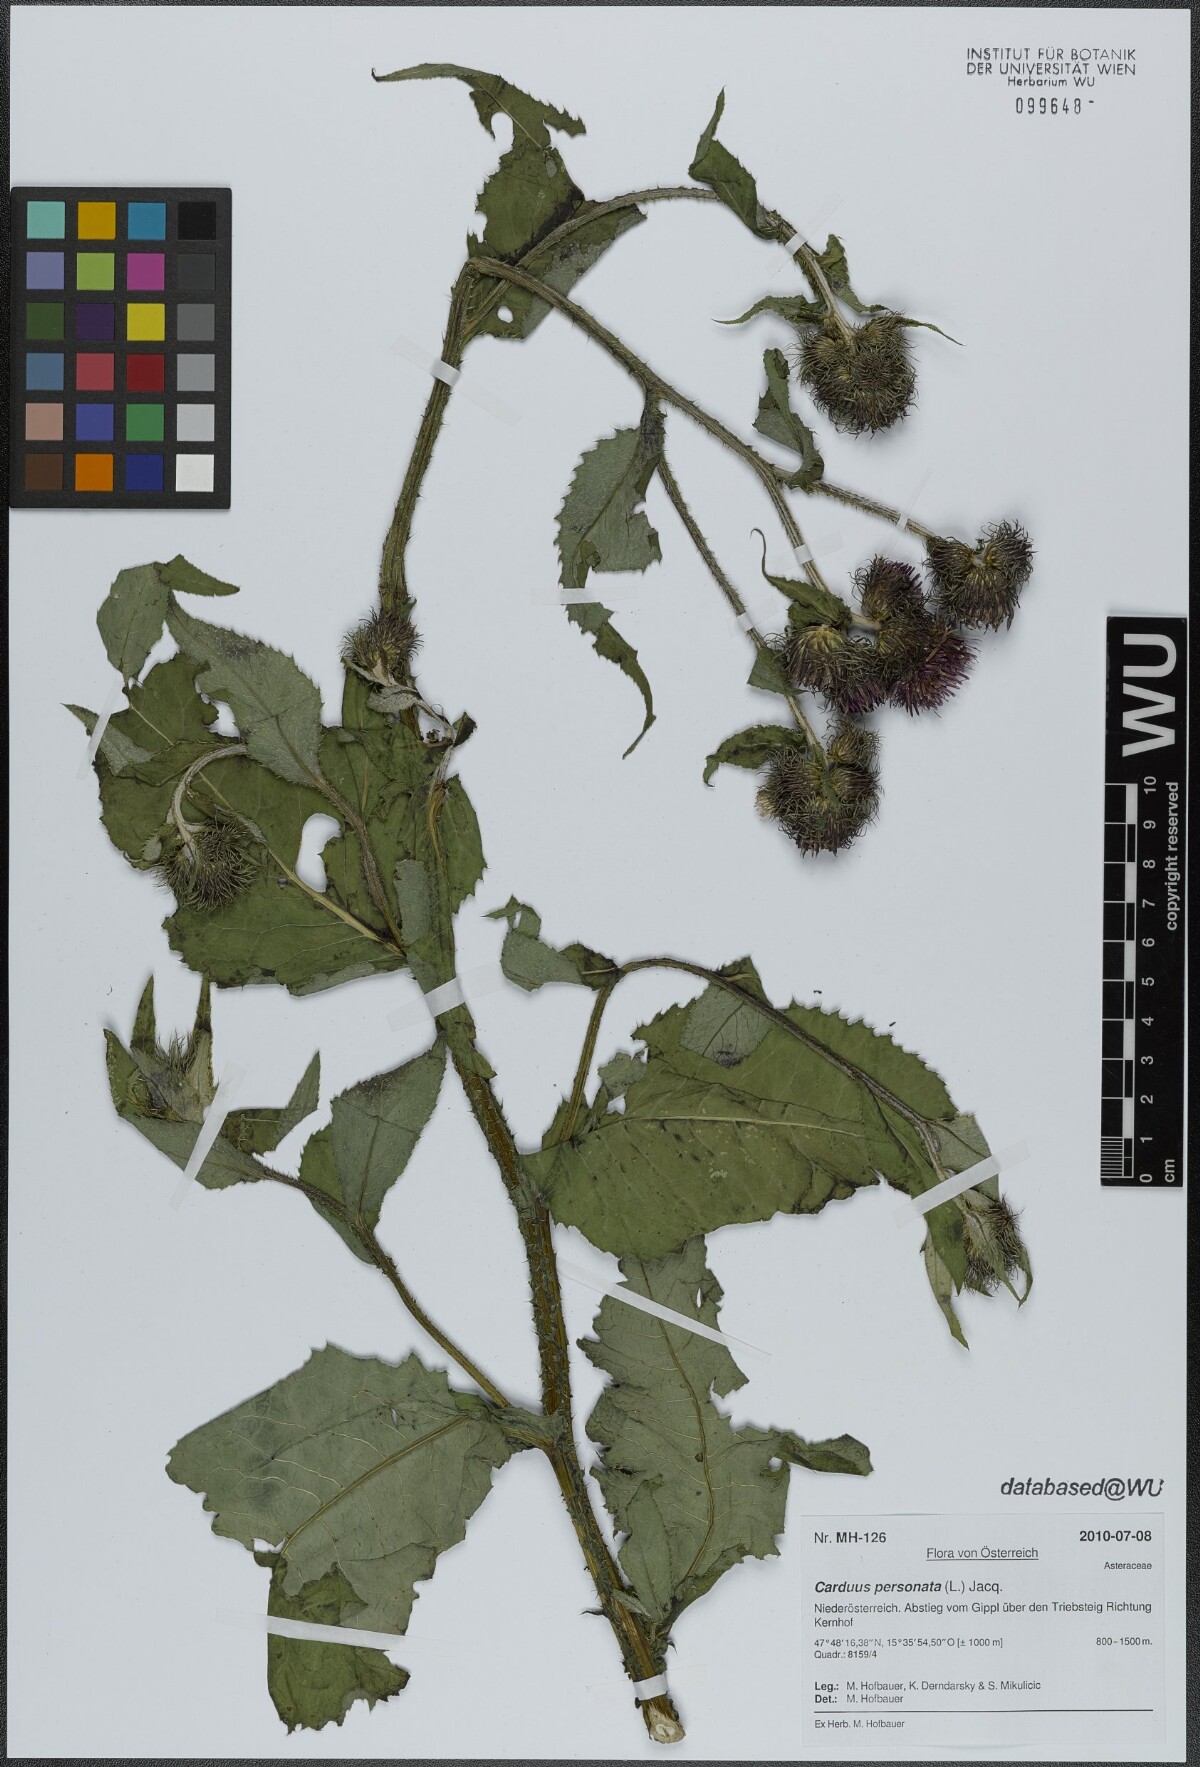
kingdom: Plantae
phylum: Tracheophyta
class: Magnoliopsida
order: Asterales
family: Asteraceae
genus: Carduus
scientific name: Carduus personata
